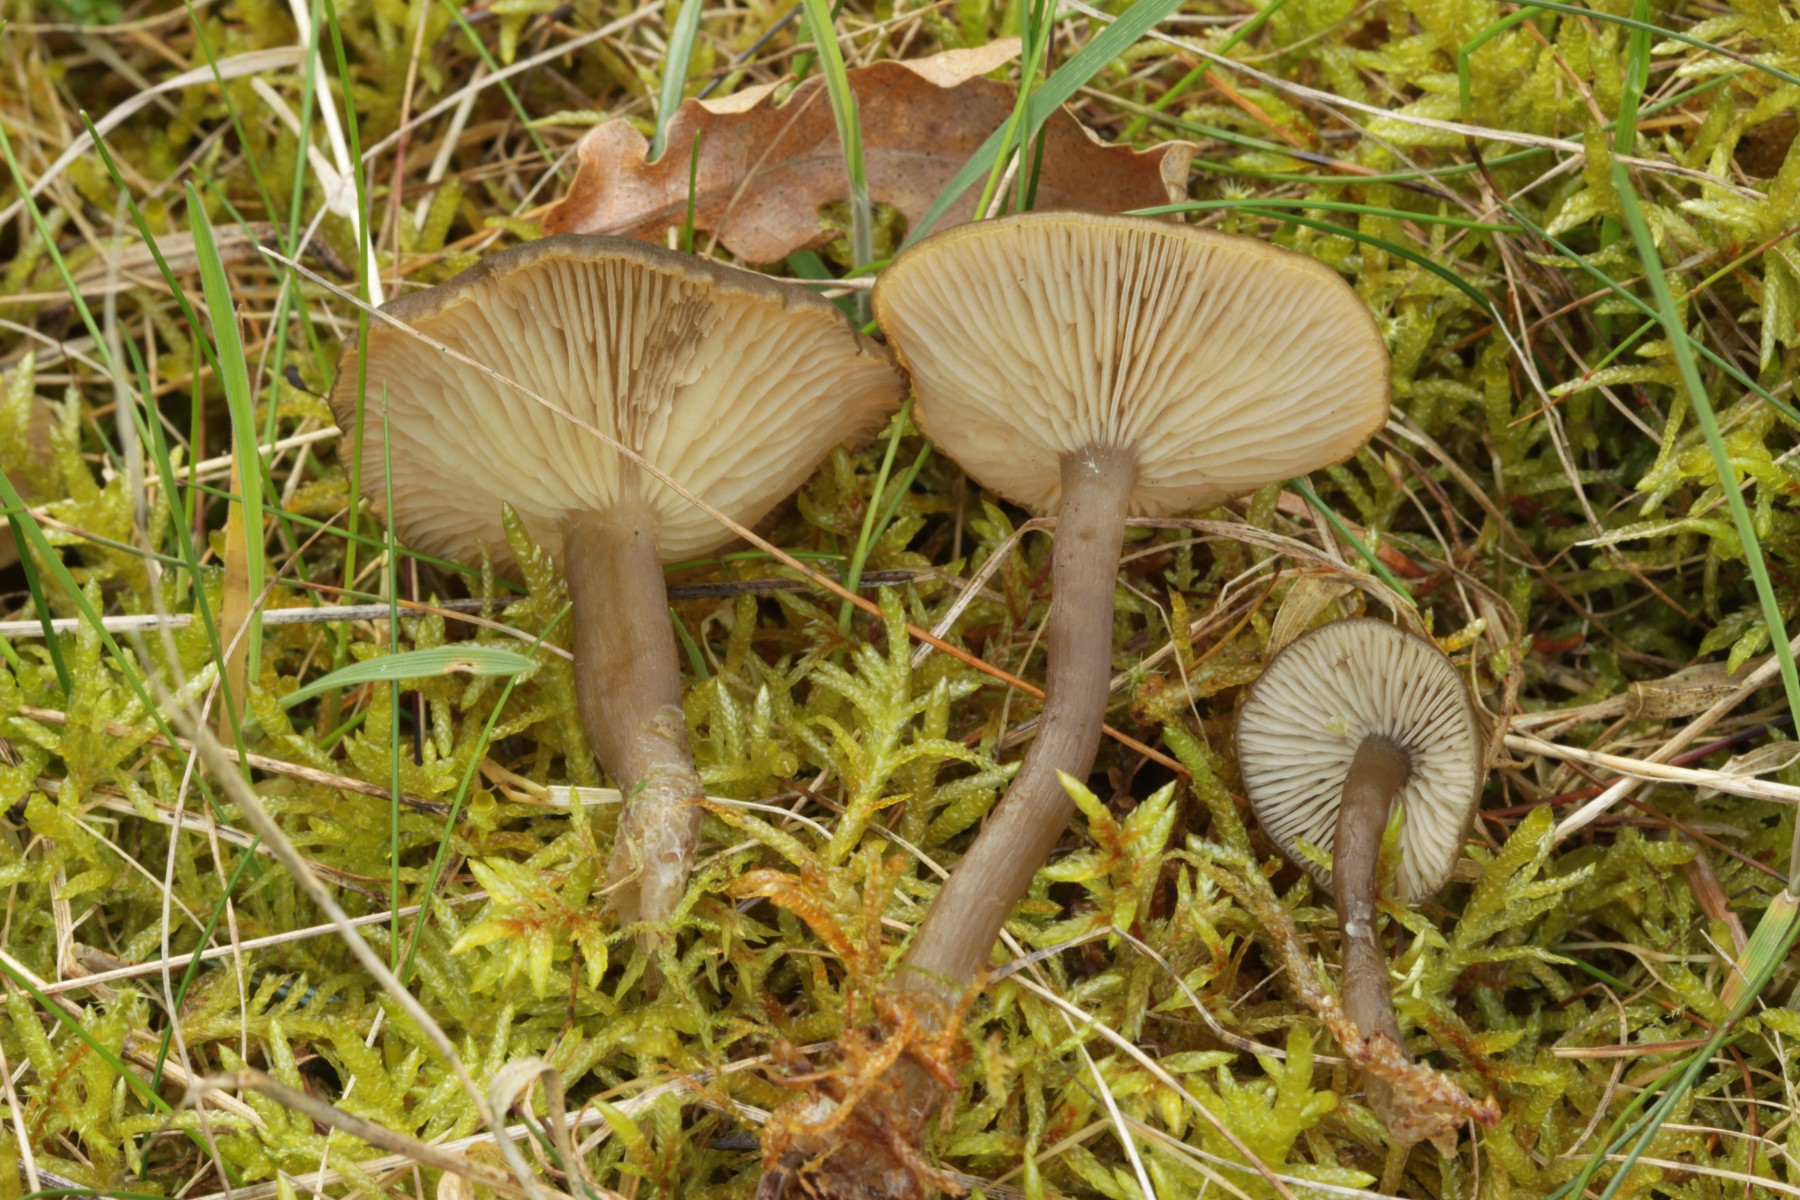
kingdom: Fungi
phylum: Basidiomycota
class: Agaricomycetes
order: Agaricales
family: Tricholomataceae
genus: Clitocybe
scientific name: Clitocybe foetens
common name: olivengrå tragthat
